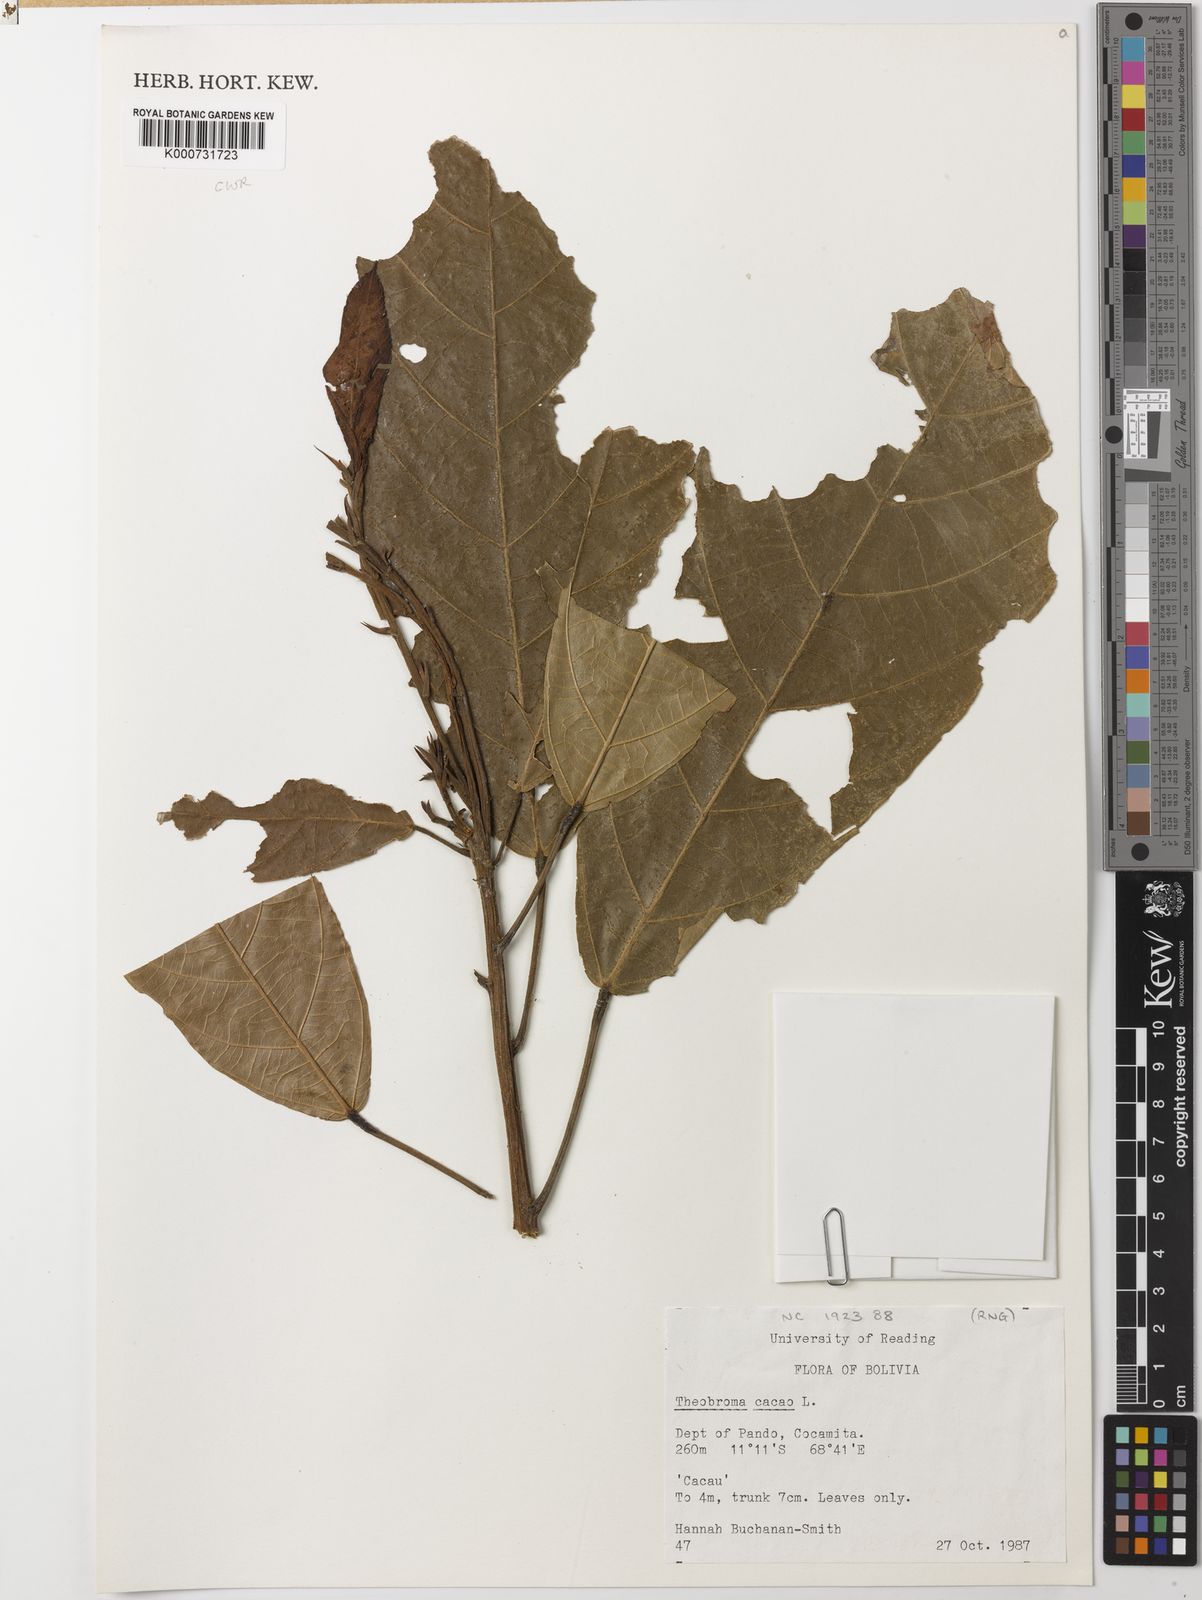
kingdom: Plantae
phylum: Tracheophyta
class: Magnoliopsida
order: Malvales
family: Malvaceae
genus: Theobroma
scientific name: Theobroma cacao
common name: Cocoa
